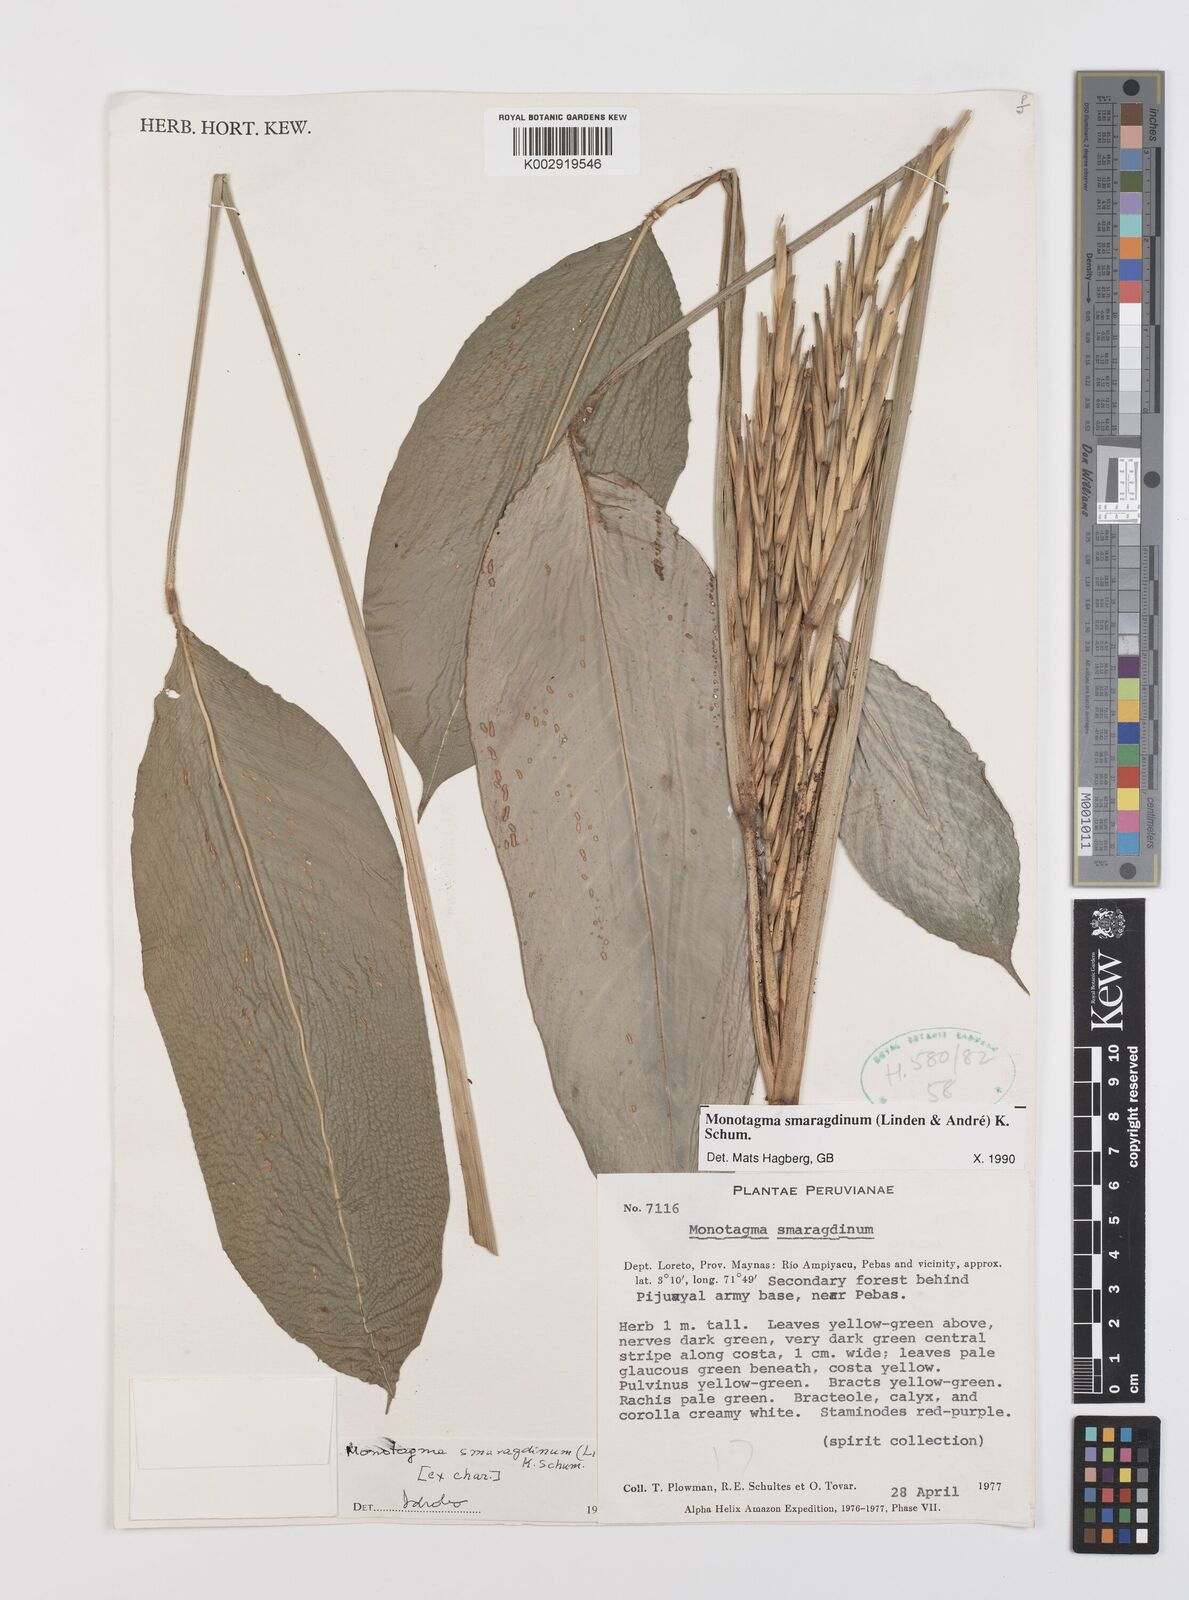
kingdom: Plantae
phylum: Tracheophyta
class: Liliopsida
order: Zingiberales
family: Marantaceae
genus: Monotagma
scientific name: Monotagma smaragdinum
